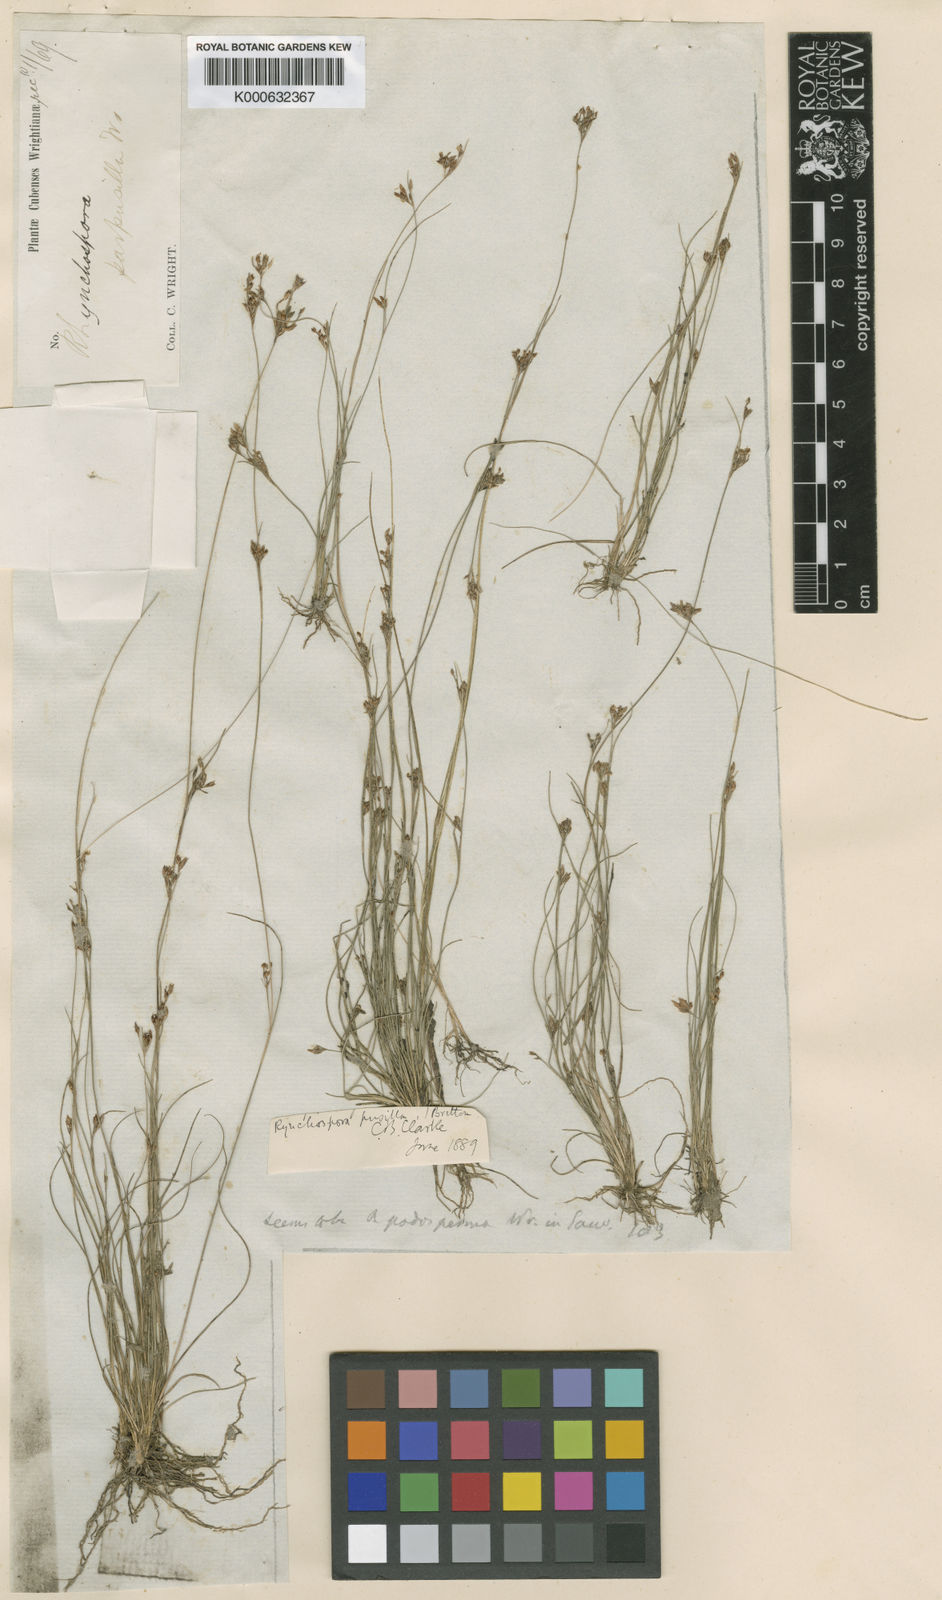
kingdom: Plantae
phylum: Tracheophyta
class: Liliopsida
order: Poales
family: Cyperaceae
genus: Rhynchospora
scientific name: Rhynchospora intermixta
